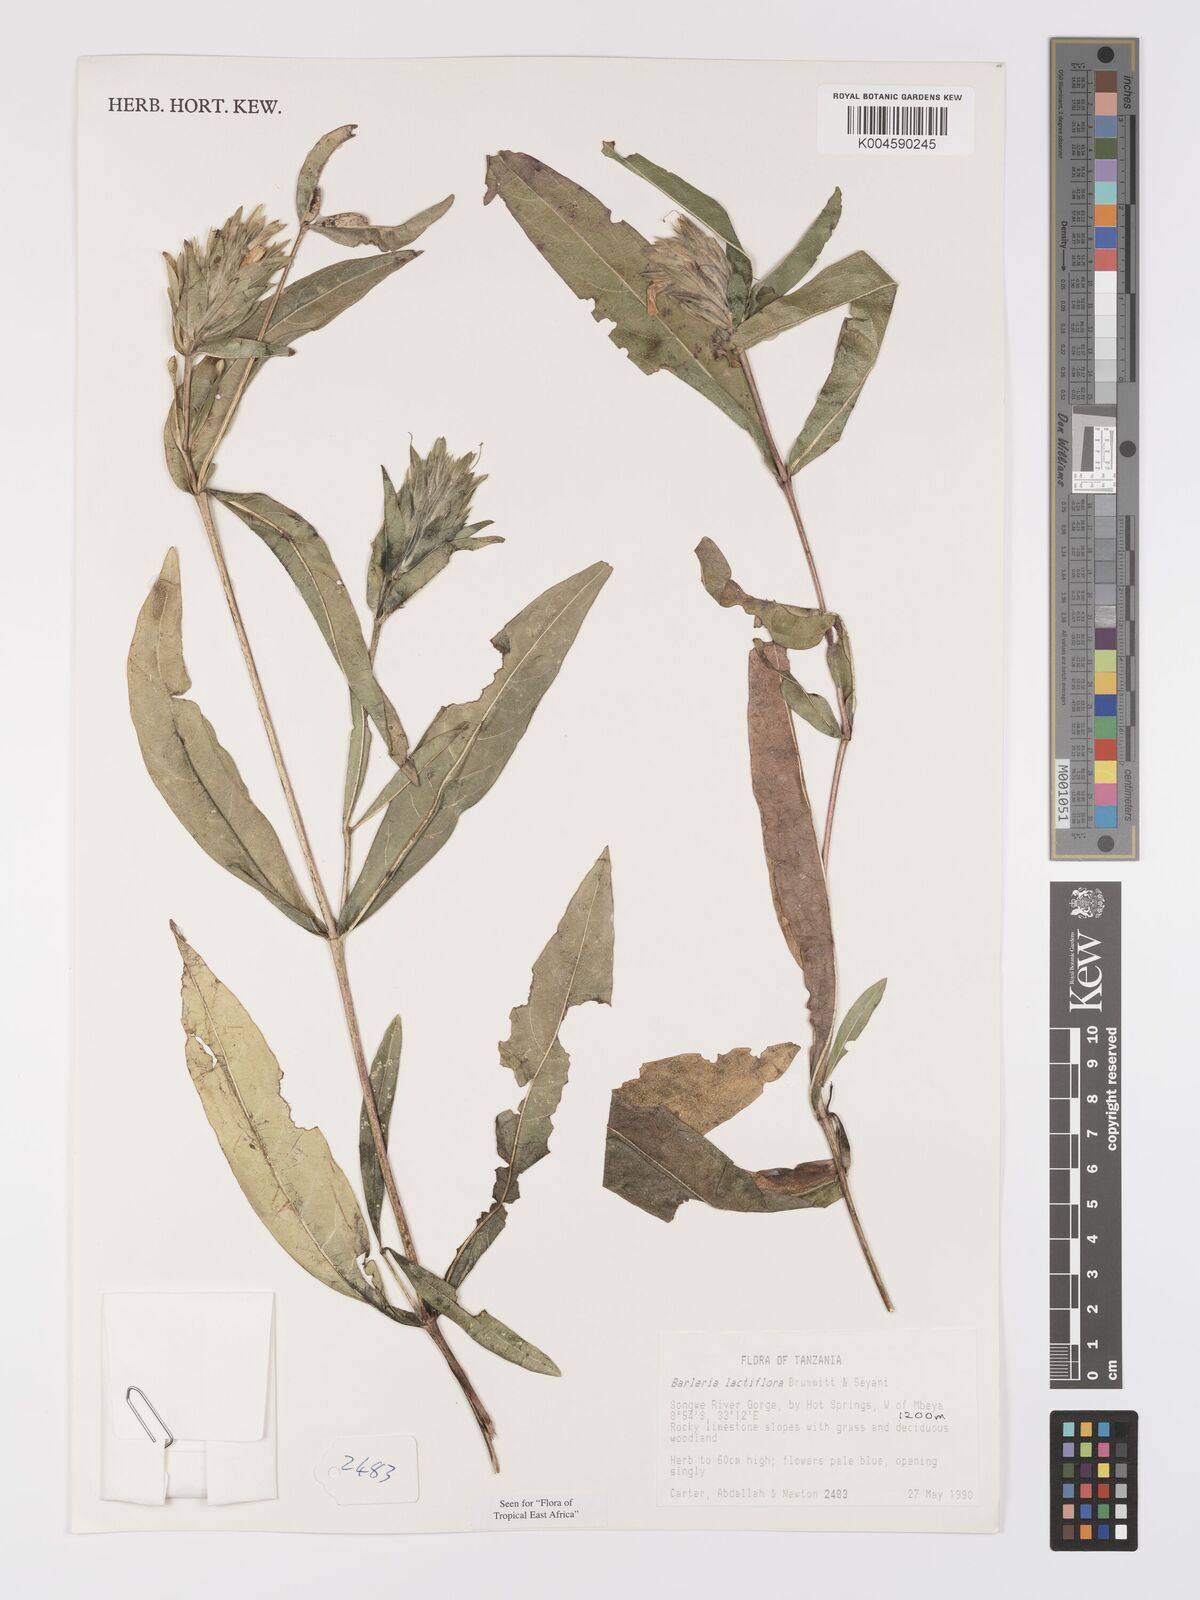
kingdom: Plantae
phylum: Tracheophyta
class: Magnoliopsida
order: Lamiales
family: Acanthaceae
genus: Barleria
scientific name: Barleria lactiflora
